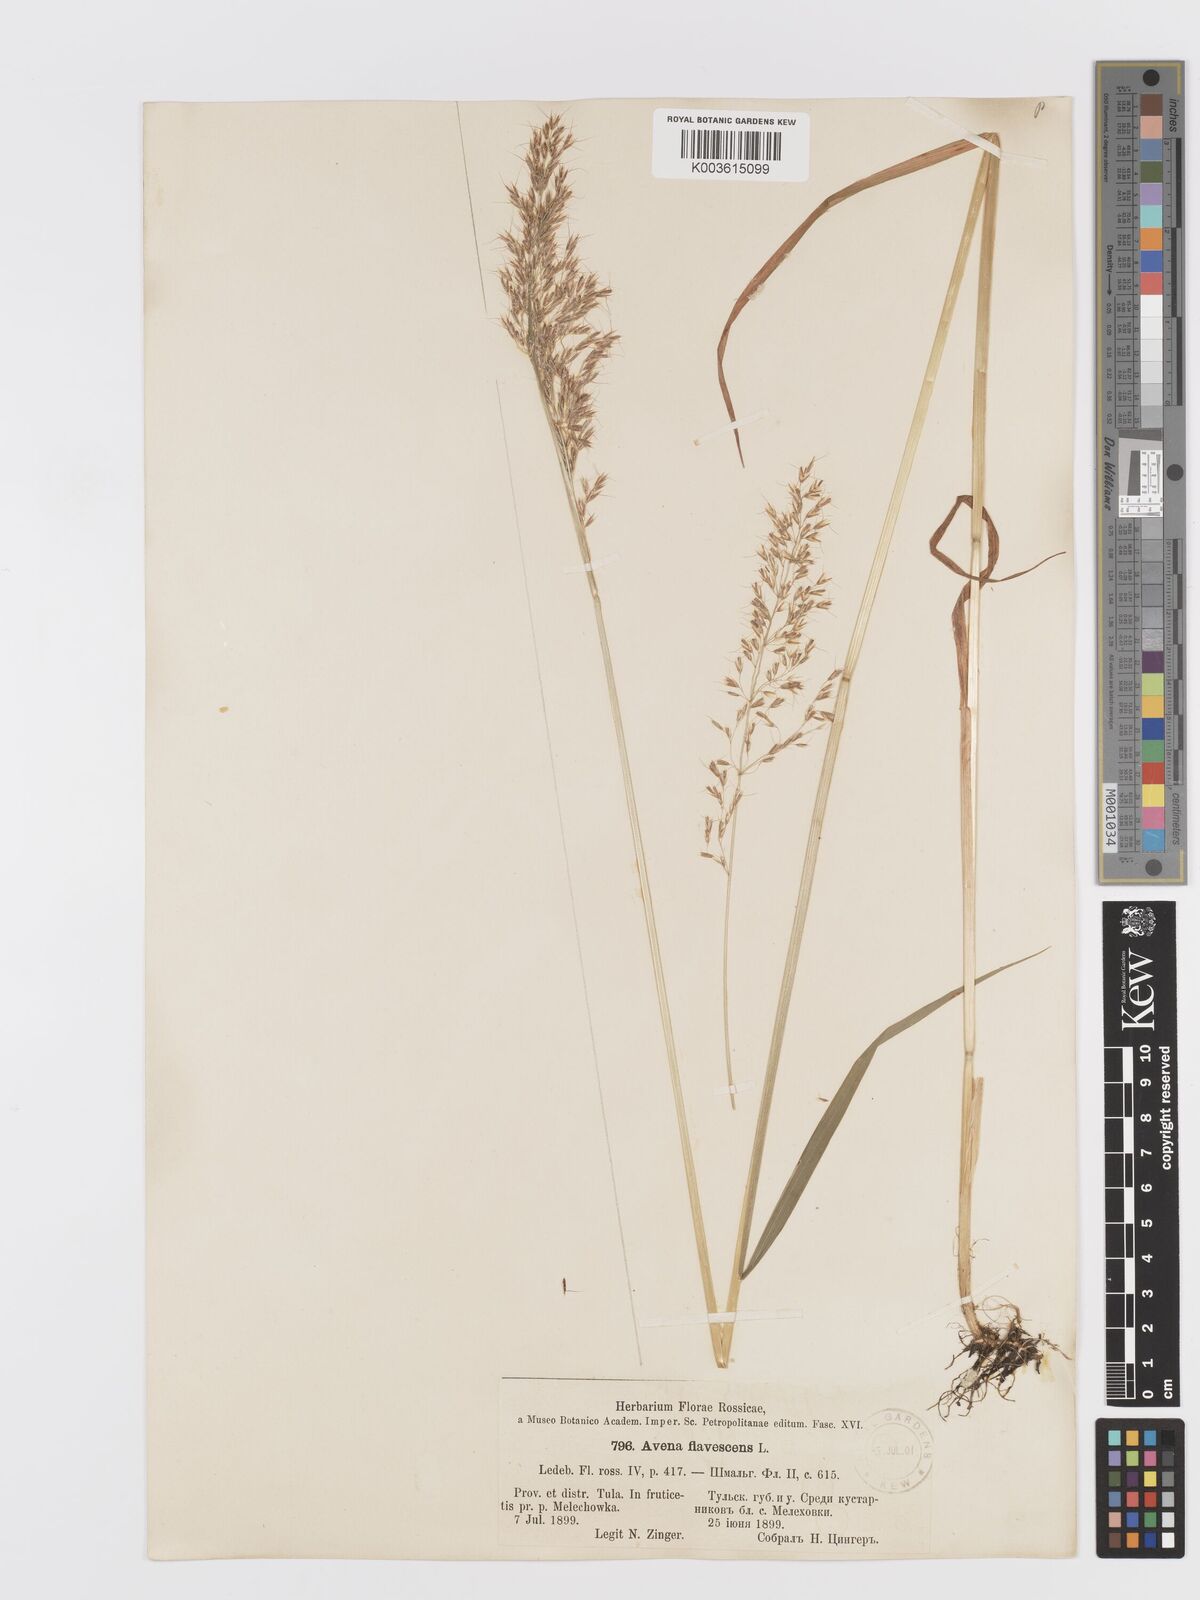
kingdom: Plantae
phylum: Tracheophyta
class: Liliopsida
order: Poales
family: Poaceae
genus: Trisetum
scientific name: Trisetum flavescens
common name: Yellow oat-grass
